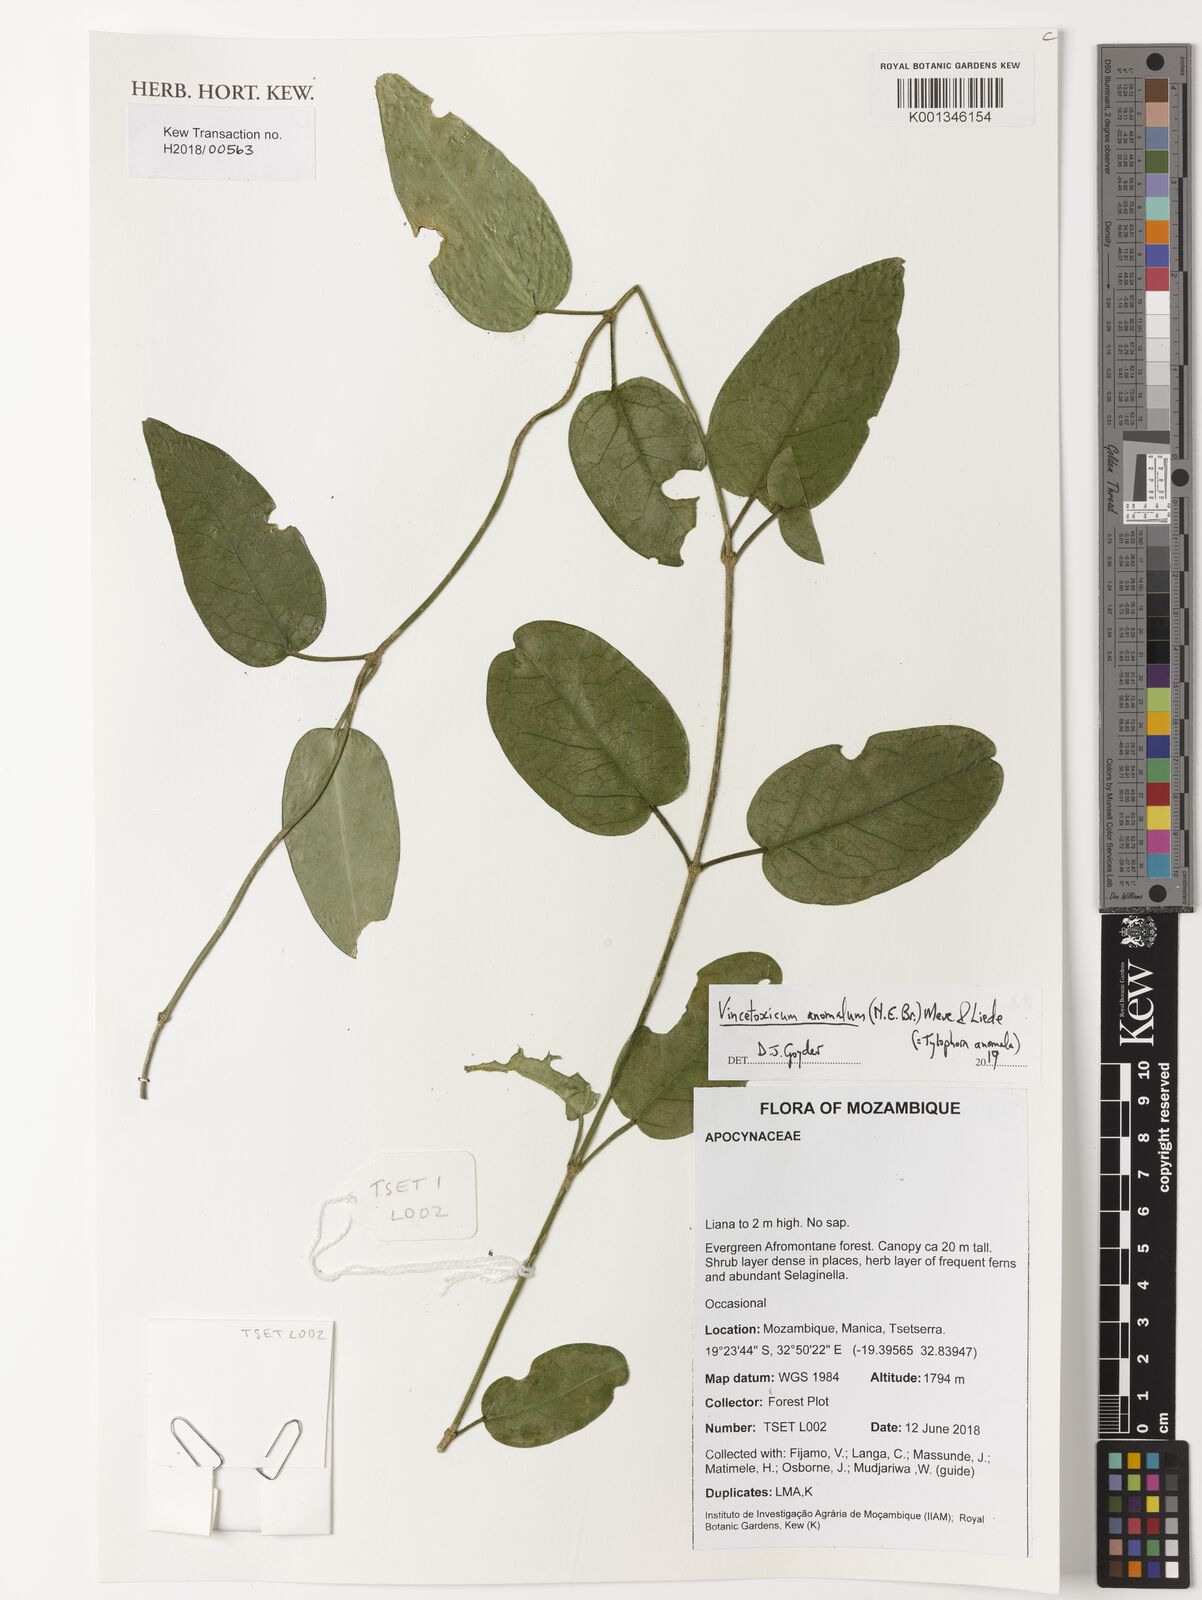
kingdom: Plantae
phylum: Tracheophyta
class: Magnoliopsida
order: Gentianales
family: Apocynaceae
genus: Vincetoxicum
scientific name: Vincetoxicum anomalum
